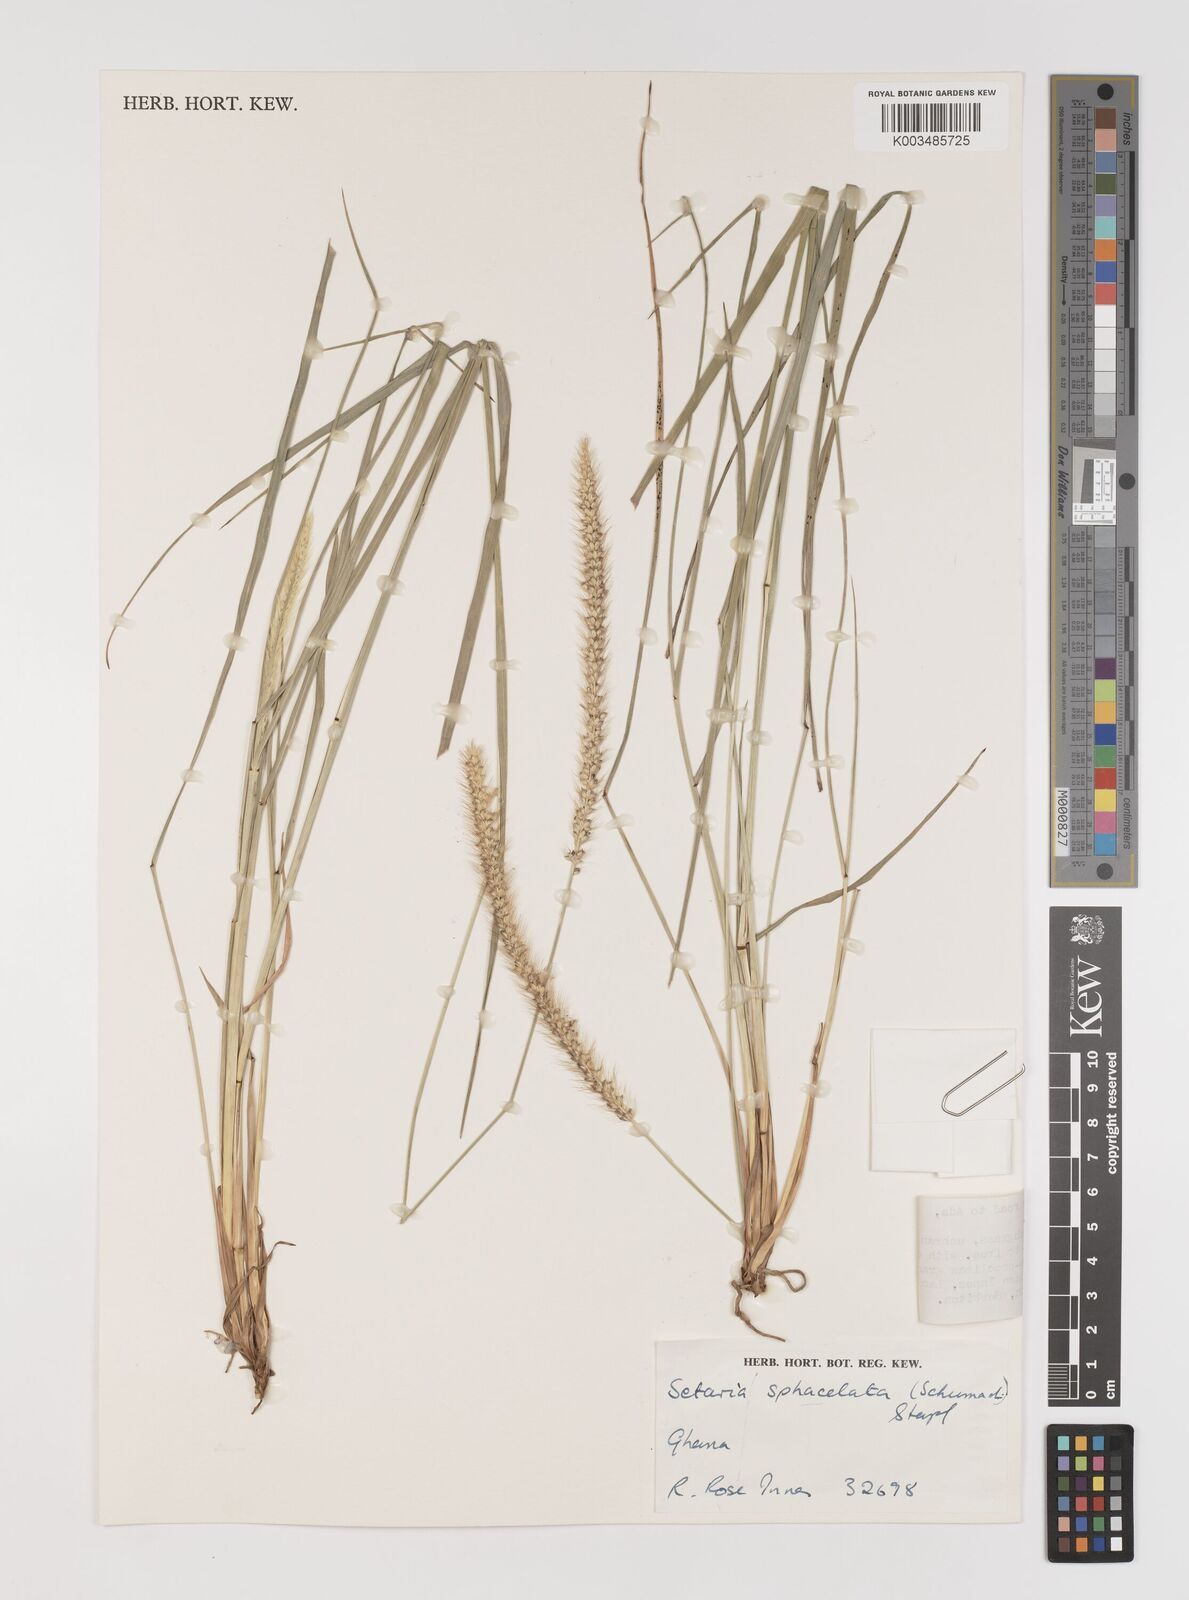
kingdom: Plantae
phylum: Tracheophyta
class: Liliopsida
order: Poales
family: Poaceae
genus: Setaria
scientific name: Setaria sphacelata
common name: African bristlegrass
